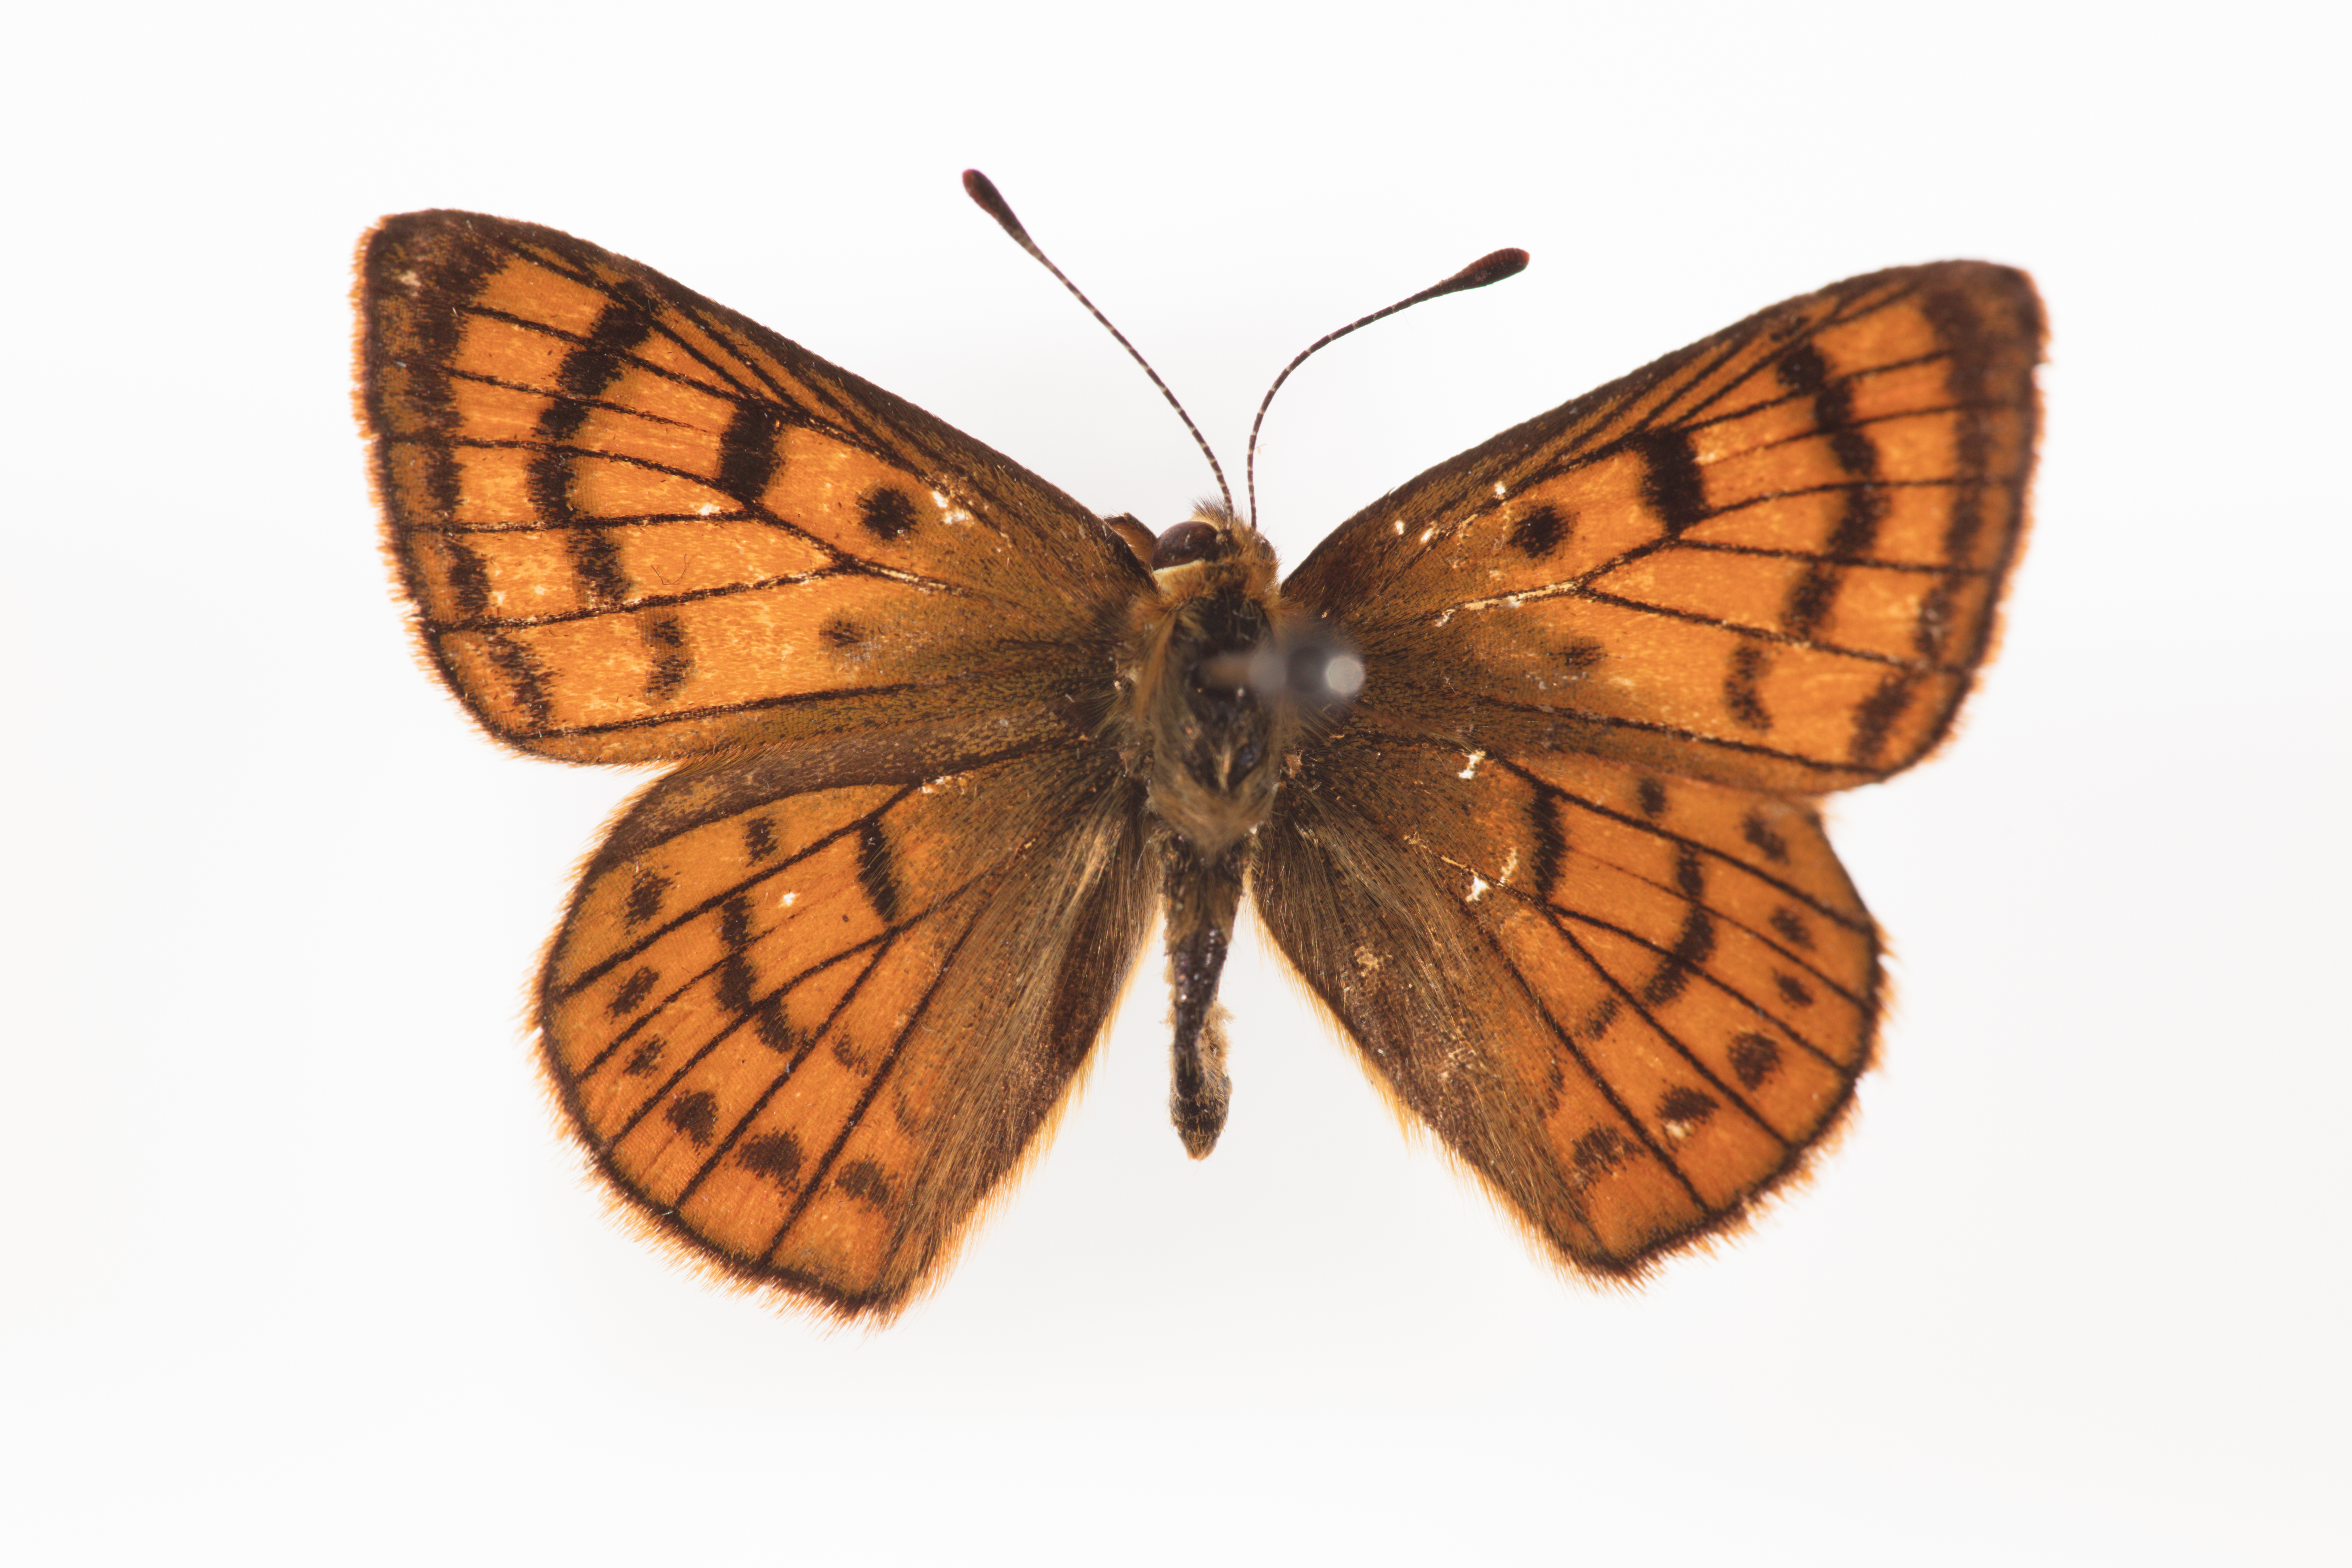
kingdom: Animalia
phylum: Arthropoda
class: Insecta
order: Lepidoptera
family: Lycaenidae
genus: Lycaena
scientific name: Lycaena rauparaha
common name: Rauparaha's copper
